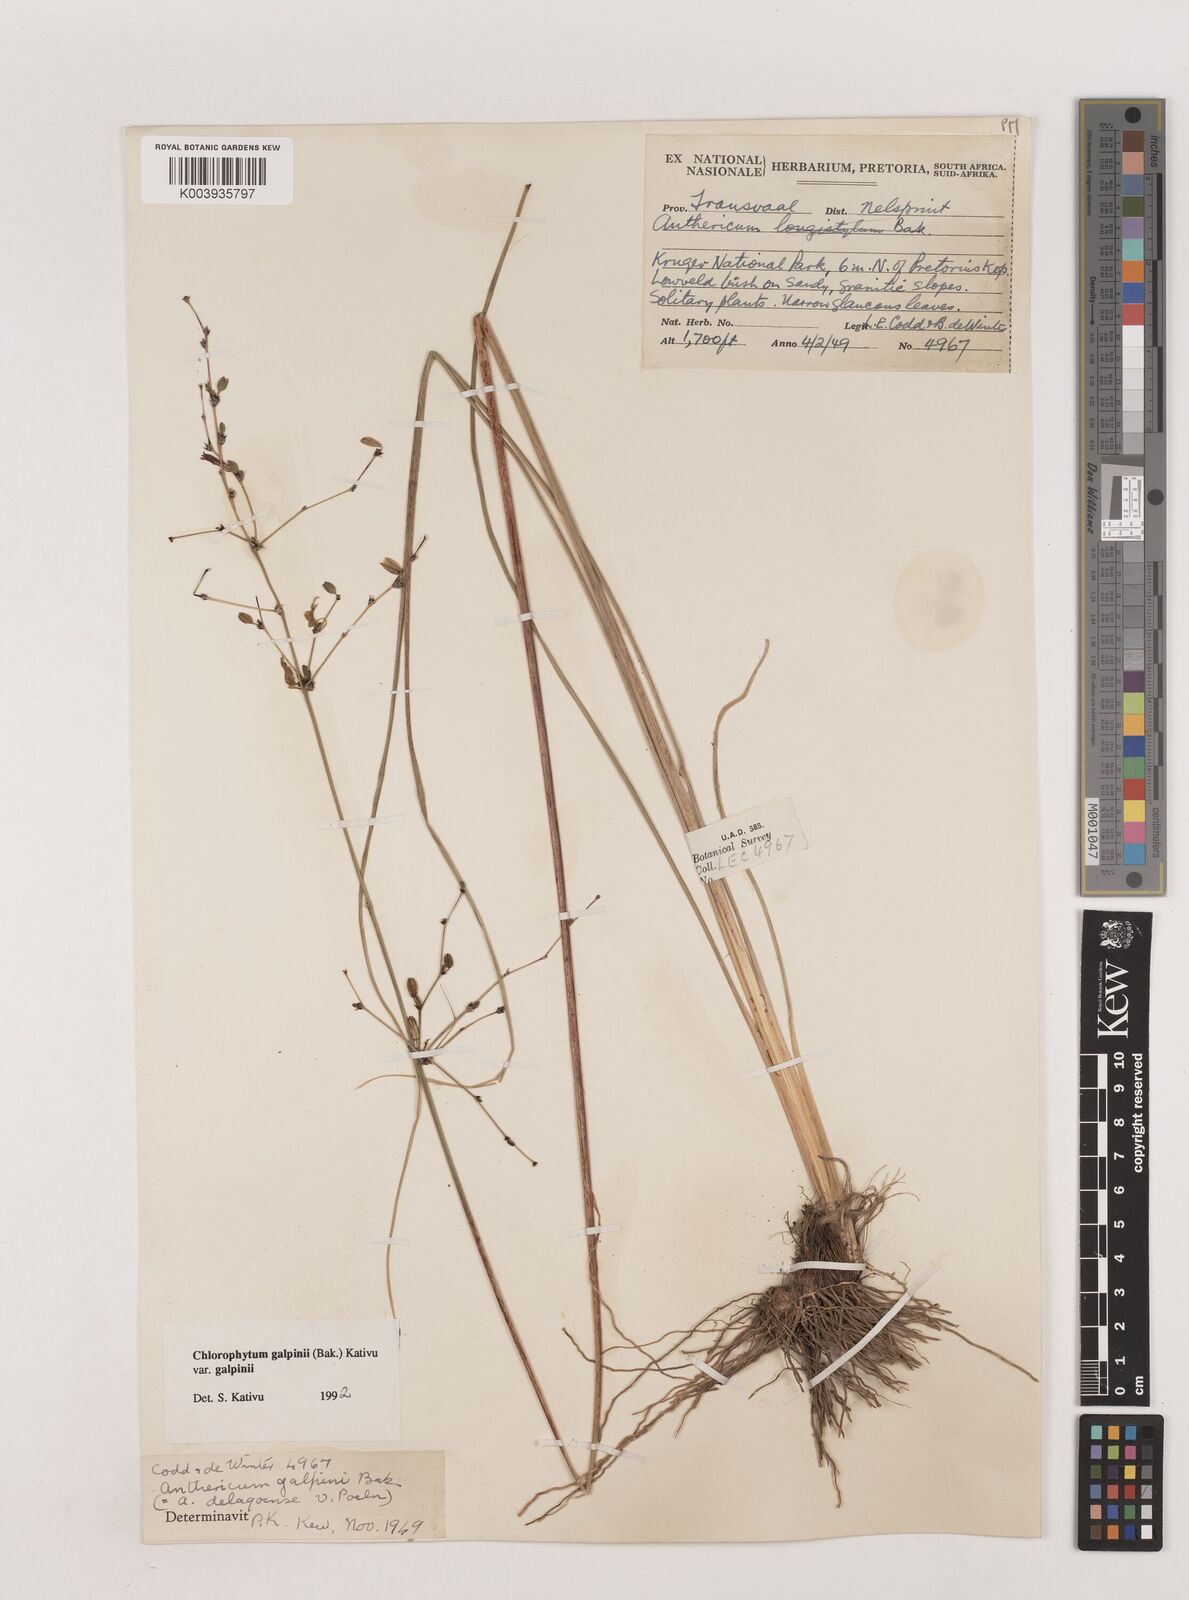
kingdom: Plantae
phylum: Tracheophyta
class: Liliopsida
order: Asparagales
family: Asparagaceae
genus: Chlorophytum
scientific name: Chlorophytum galpinii
